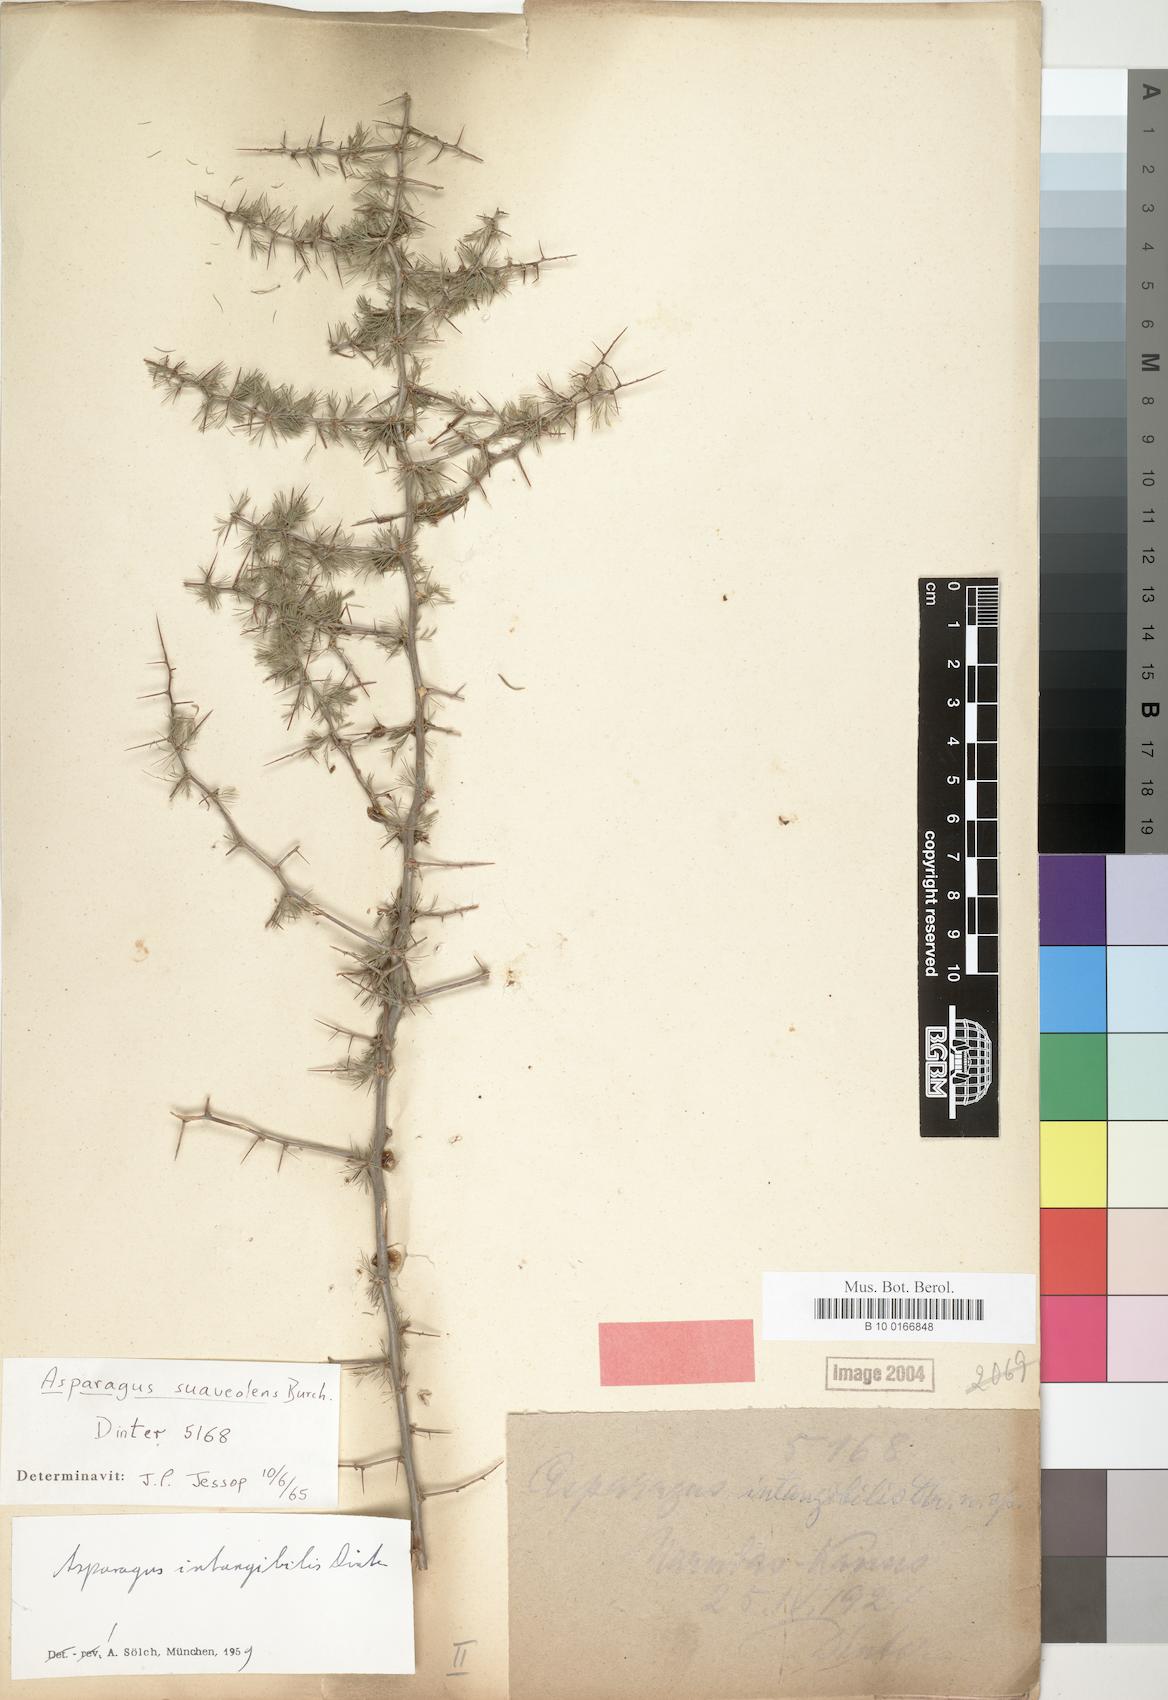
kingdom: Plantae
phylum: Tracheophyta
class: Liliopsida
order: Asparagales
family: Asparagaceae
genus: Asparagus
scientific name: Asparagus suaveolens
